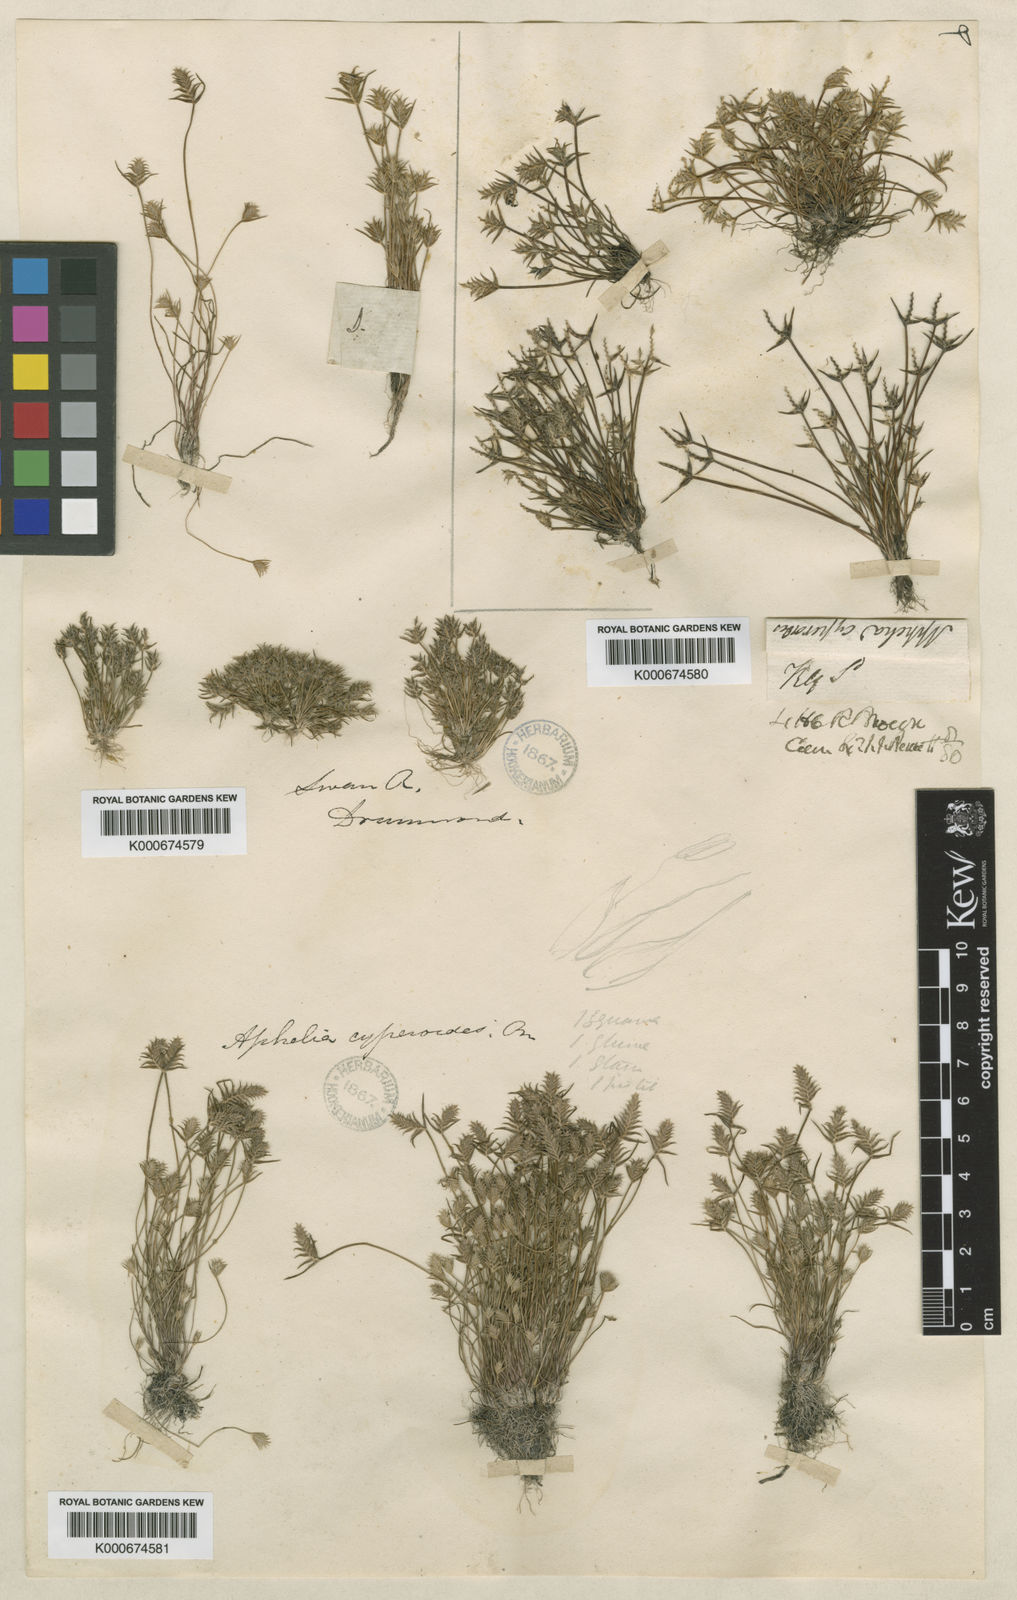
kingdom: Plantae
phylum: Tracheophyta
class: Liliopsida
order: Poales
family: Restionaceae
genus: Aphelia
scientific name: Aphelia cyperoides
